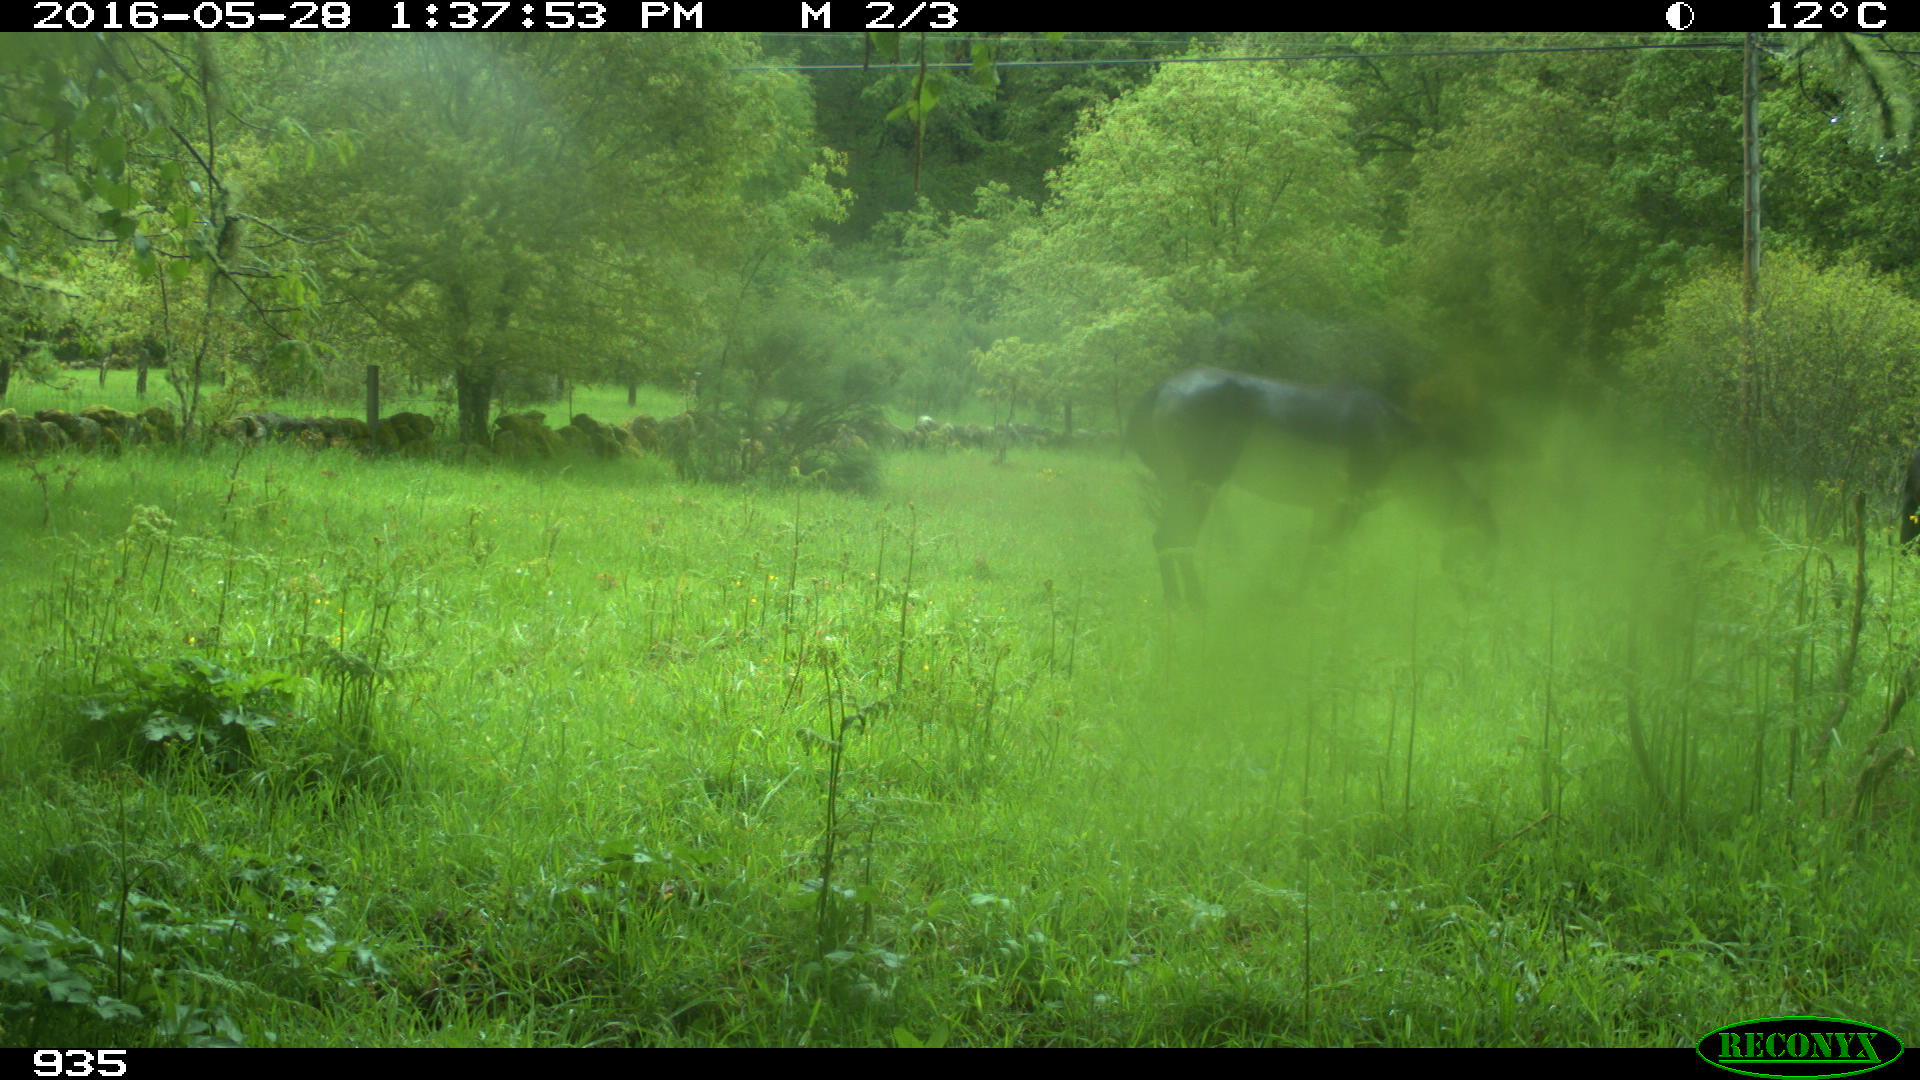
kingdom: Animalia
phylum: Chordata
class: Mammalia
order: Perissodactyla
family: Equidae
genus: Equus
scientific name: Equus caballus
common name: Horse
